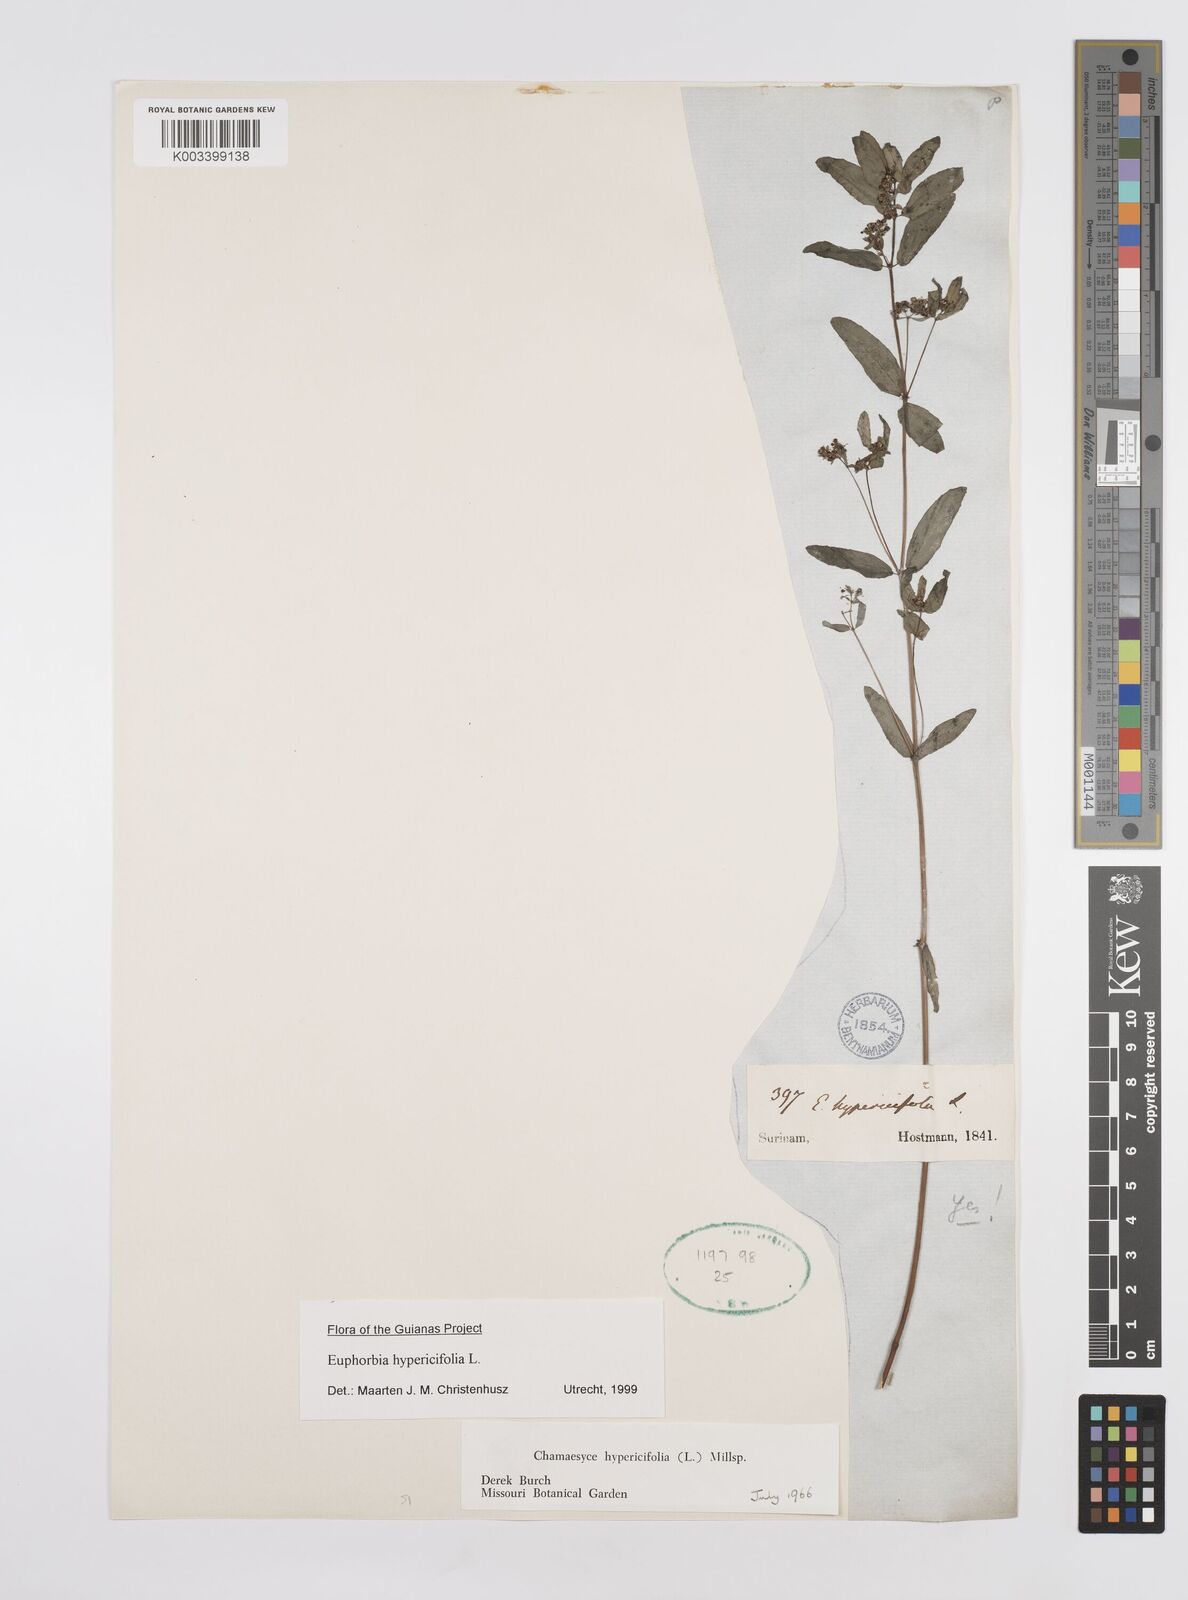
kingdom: Plantae
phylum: Tracheophyta
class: Magnoliopsida
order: Malpighiales
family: Euphorbiaceae
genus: Euphorbia
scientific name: Euphorbia hypericifolia
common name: Graceful sandmat
